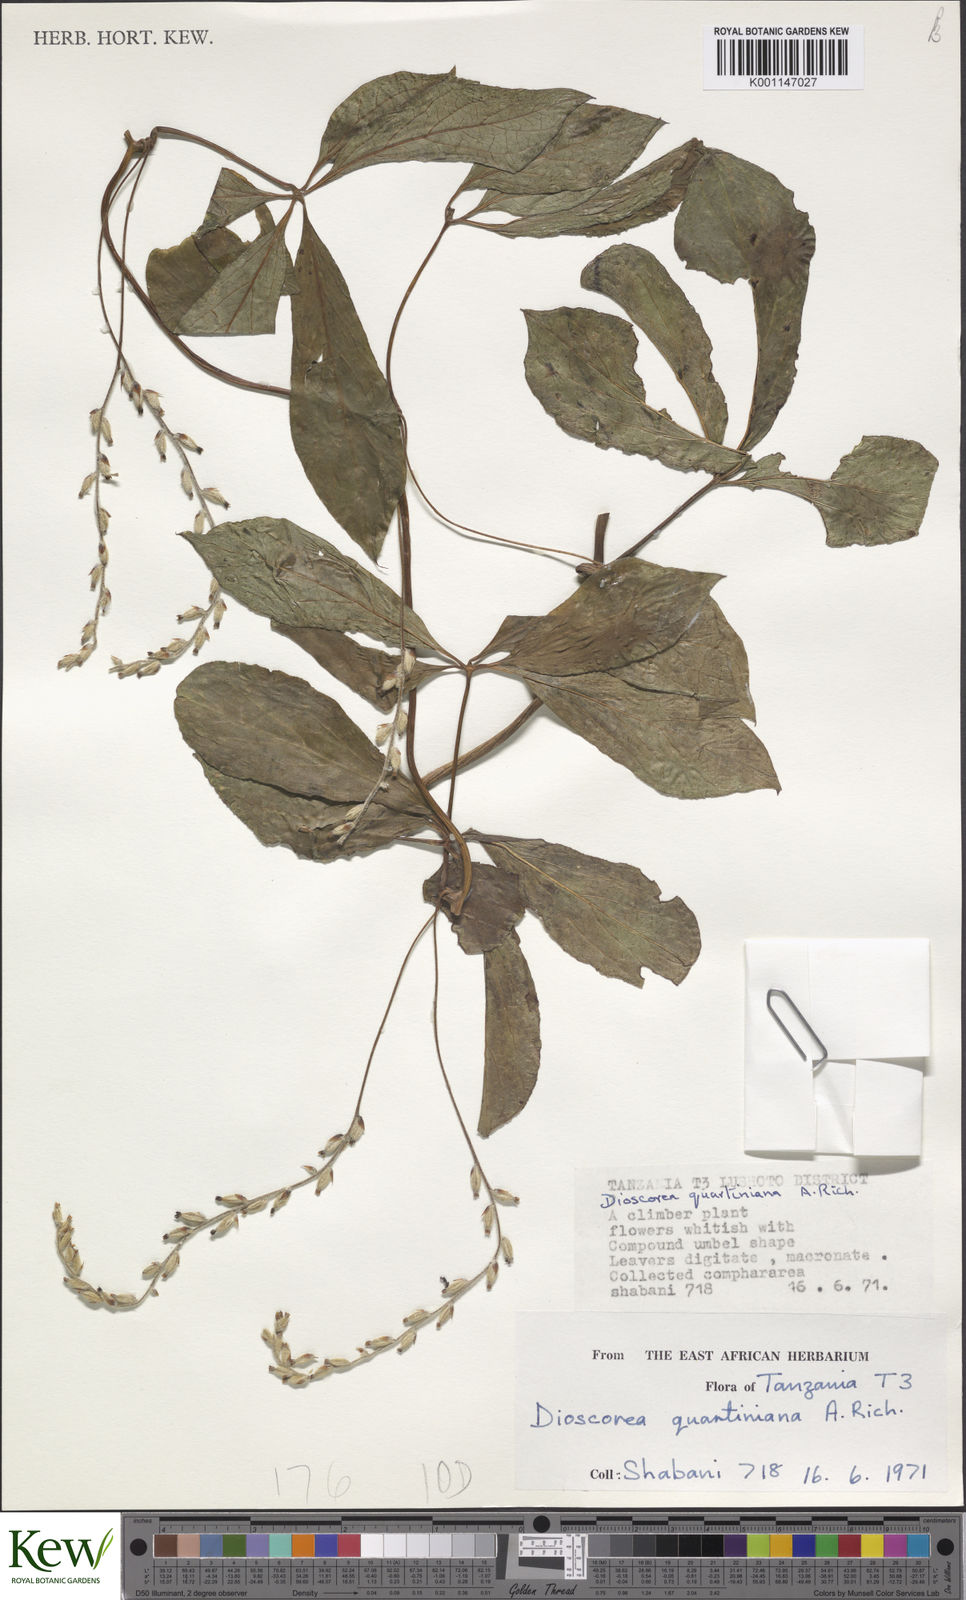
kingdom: Plantae
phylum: Tracheophyta
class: Liliopsida
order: Dioscoreales
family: Dioscoreaceae
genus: Dioscorea
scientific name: Dioscorea quartiniana
